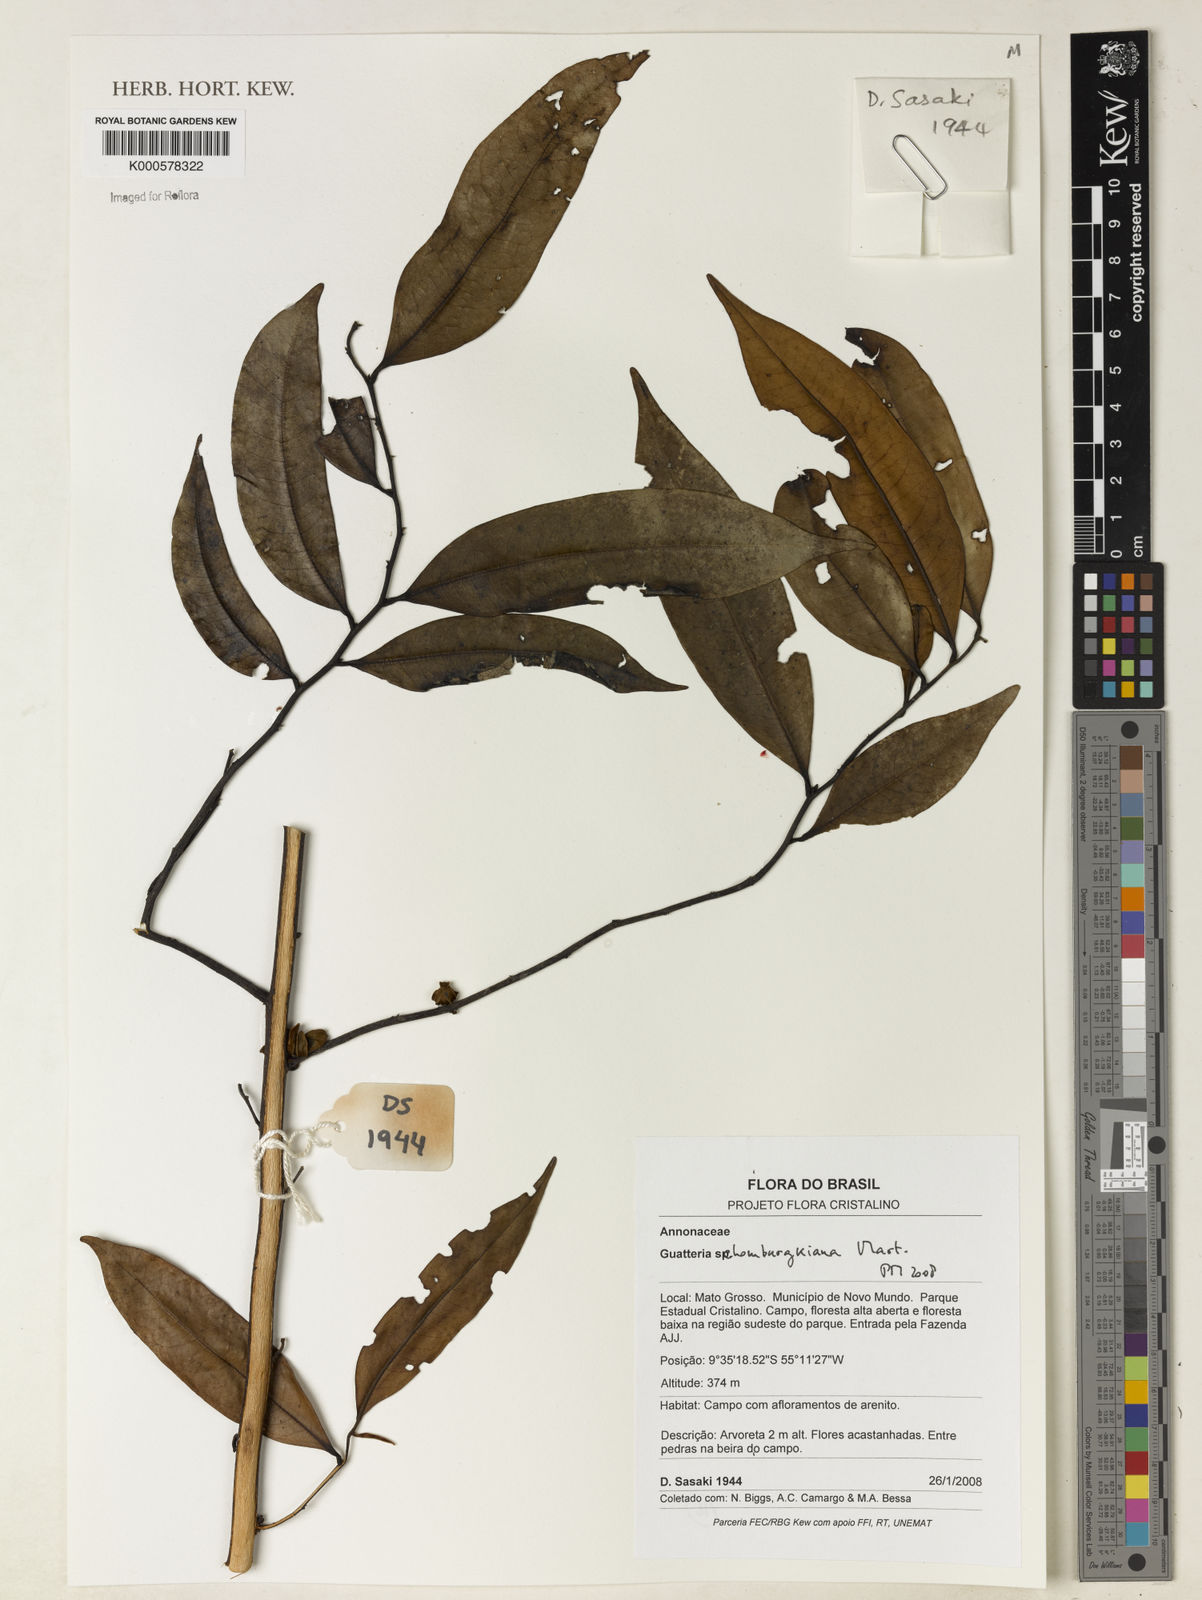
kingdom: Plantae
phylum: Tracheophyta
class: Magnoliopsida
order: Magnoliales
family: Annonaceae
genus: Guatteria
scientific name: Guatteria schomburgkiana
